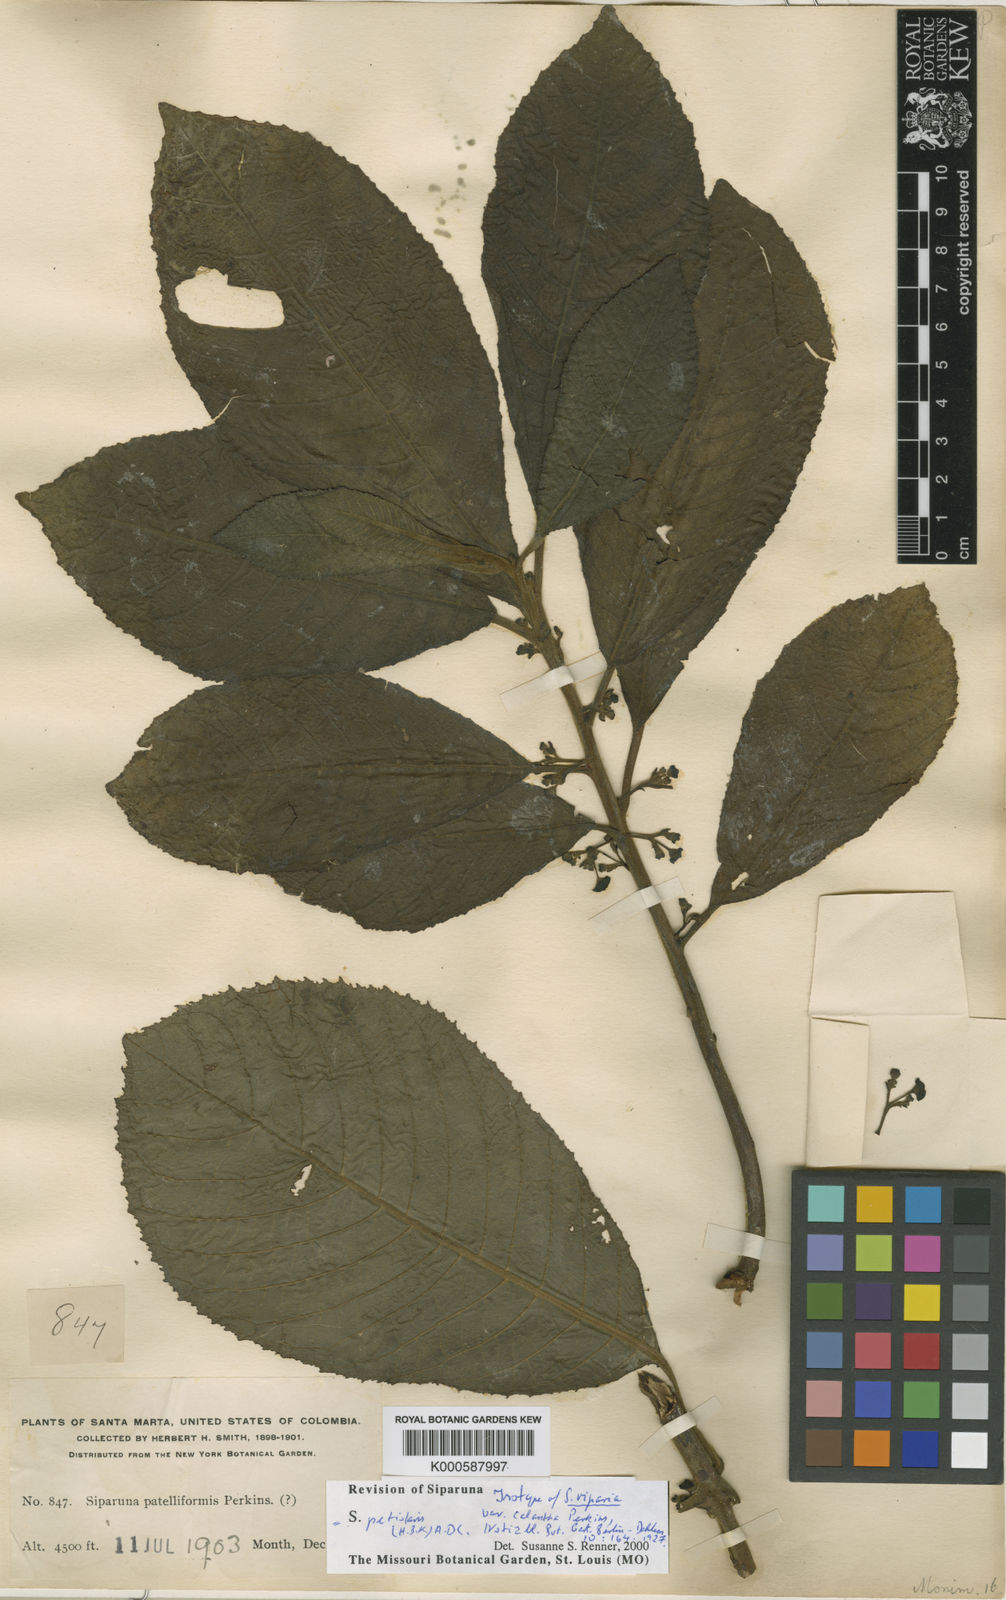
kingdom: Plantae
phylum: Tracheophyta
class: Magnoliopsida
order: Laurales
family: Siparunaceae
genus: Siparuna
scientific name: Siparuna petiolaris
